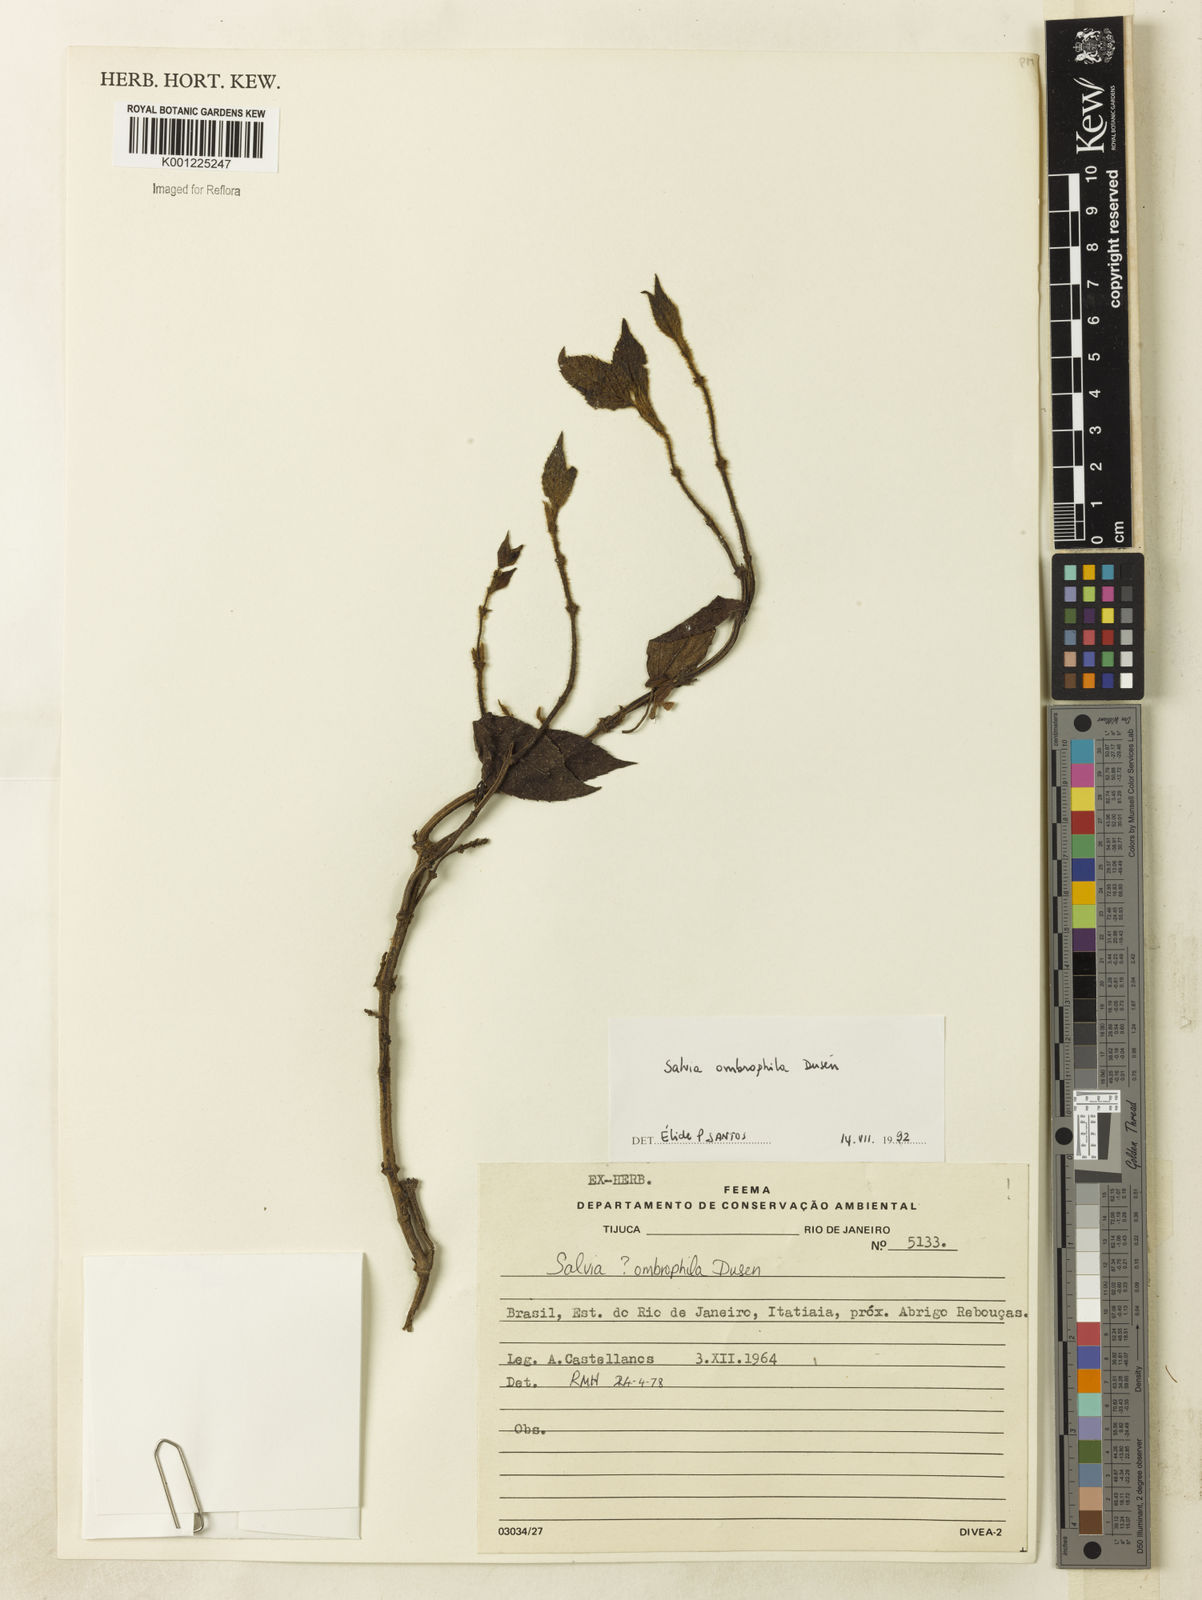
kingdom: Plantae
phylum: Tracheophyta
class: Magnoliopsida
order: Lamiales
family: Lamiaceae
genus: Salvia
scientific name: Salvia
